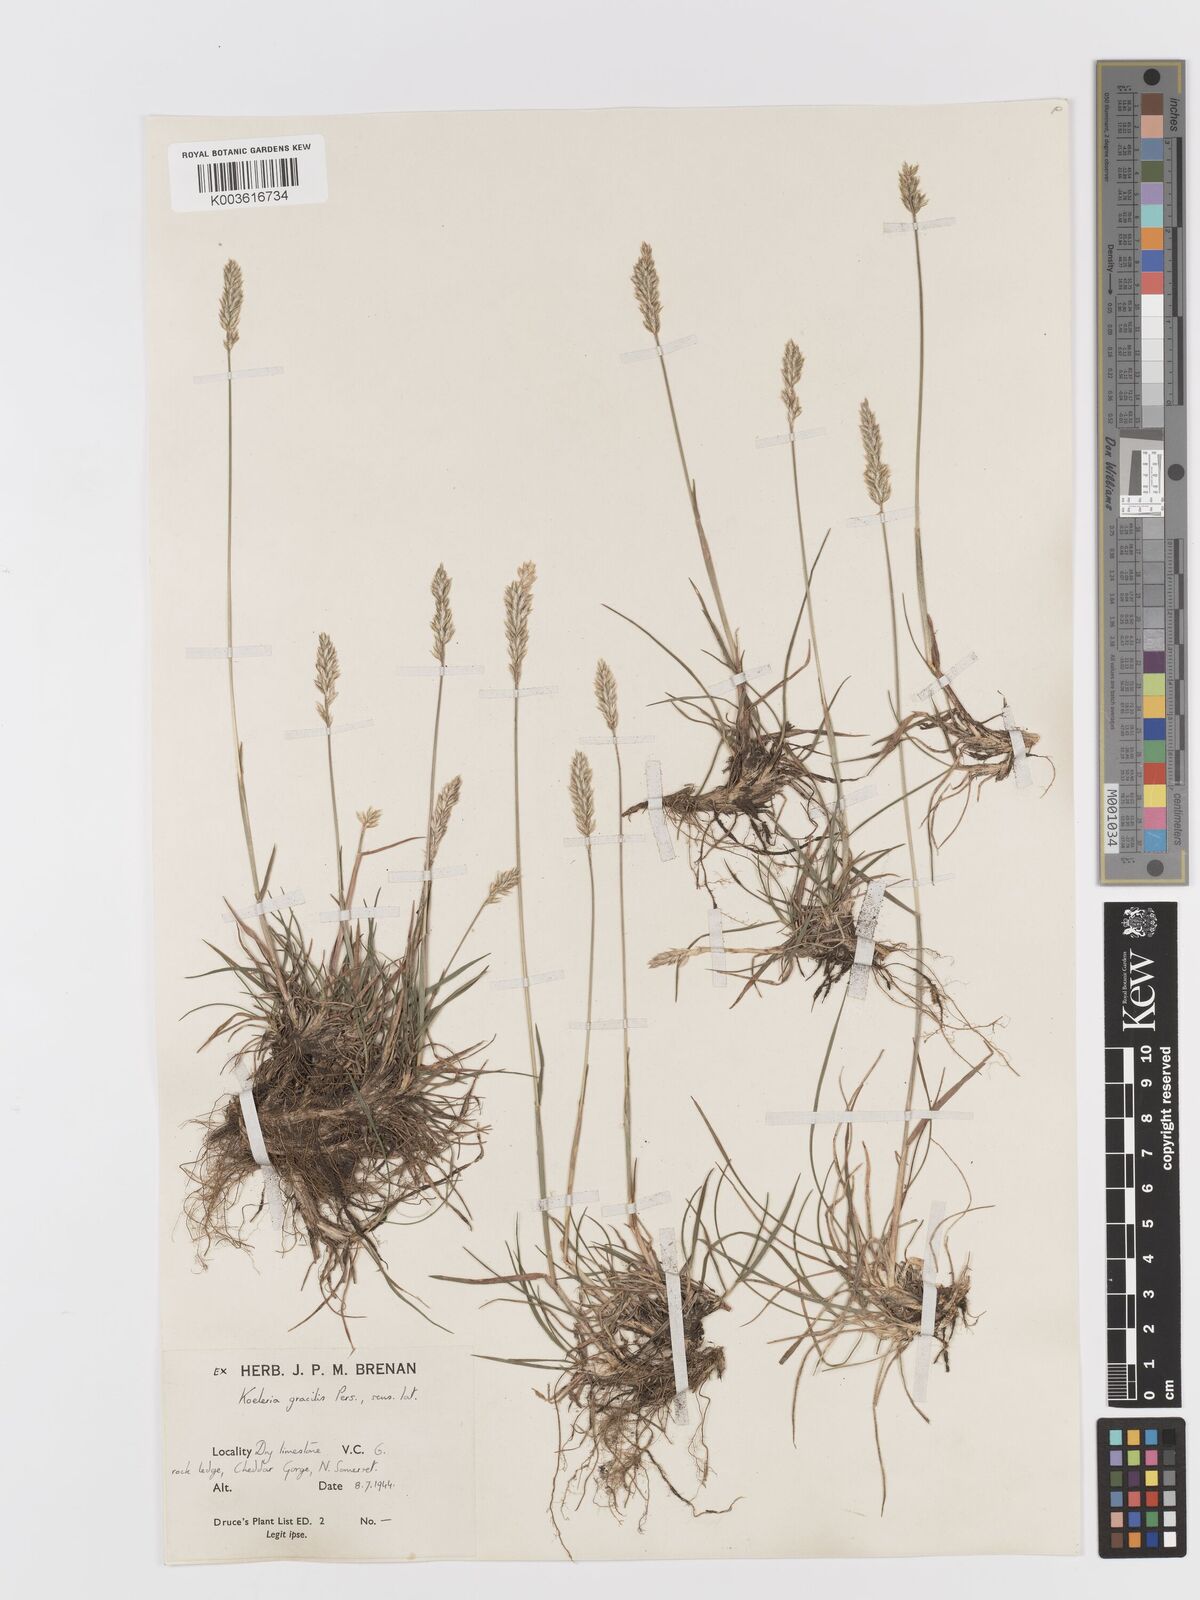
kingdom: Plantae
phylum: Tracheophyta
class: Liliopsida
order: Poales
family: Poaceae
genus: Koeleria
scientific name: Koeleria
